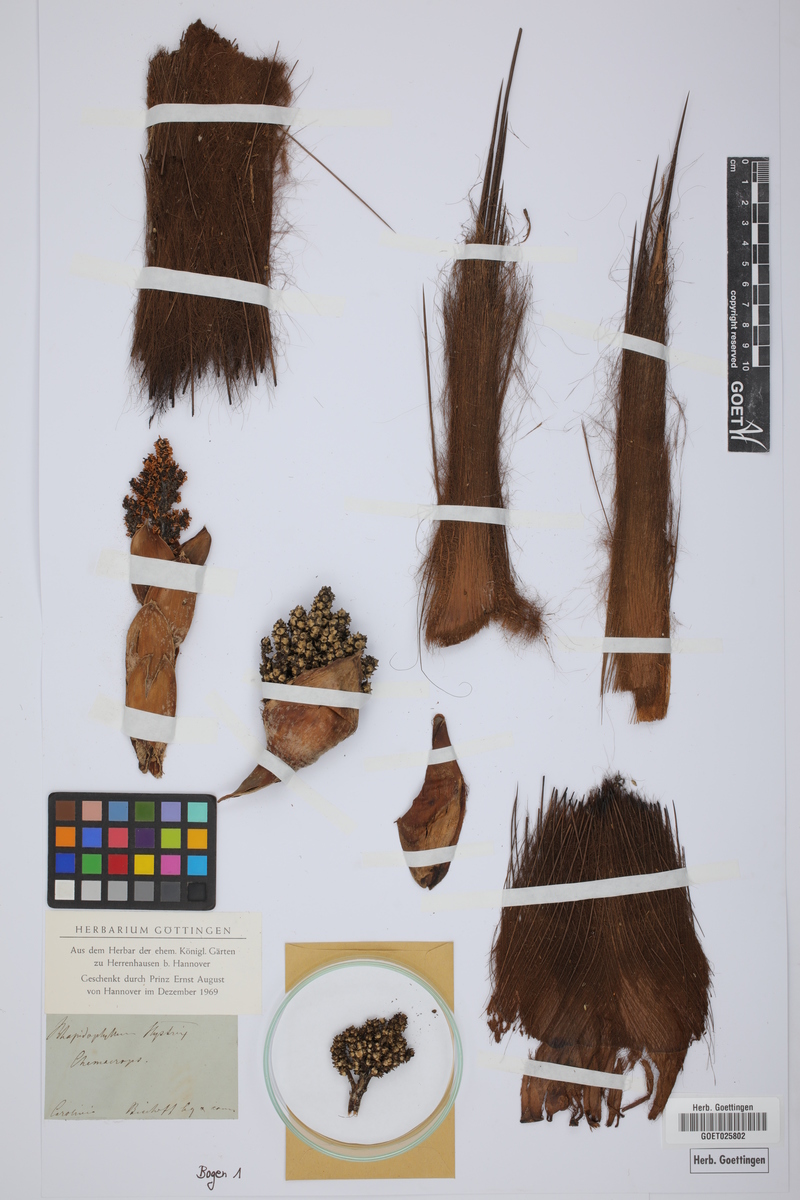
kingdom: Plantae
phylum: Tracheophyta
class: Liliopsida
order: Arecales
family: Arecaceae
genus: Rhapidophyllum
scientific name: Rhapidophyllum hystrix
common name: Porcupine palm
